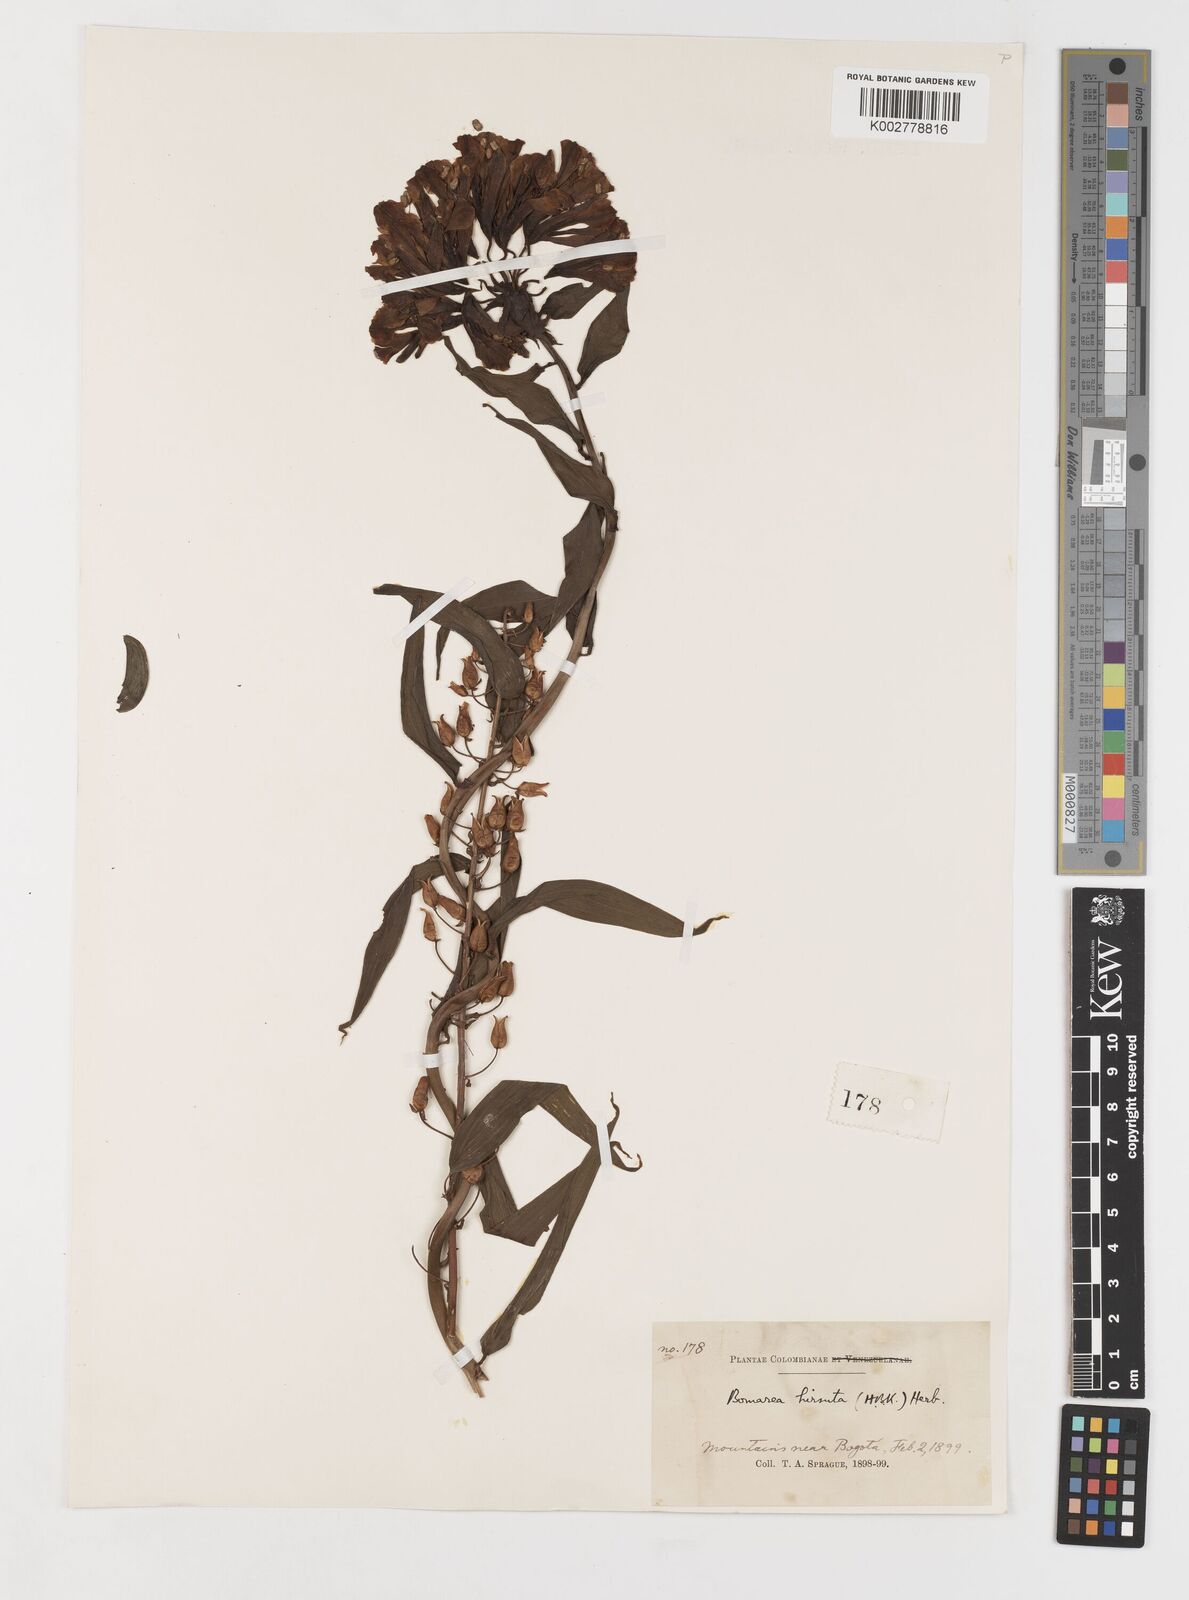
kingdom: Plantae
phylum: Tracheophyta
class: Liliopsida
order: Liliales
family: Alstroemeriaceae
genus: Bomarea
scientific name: Bomarea hirsuta
